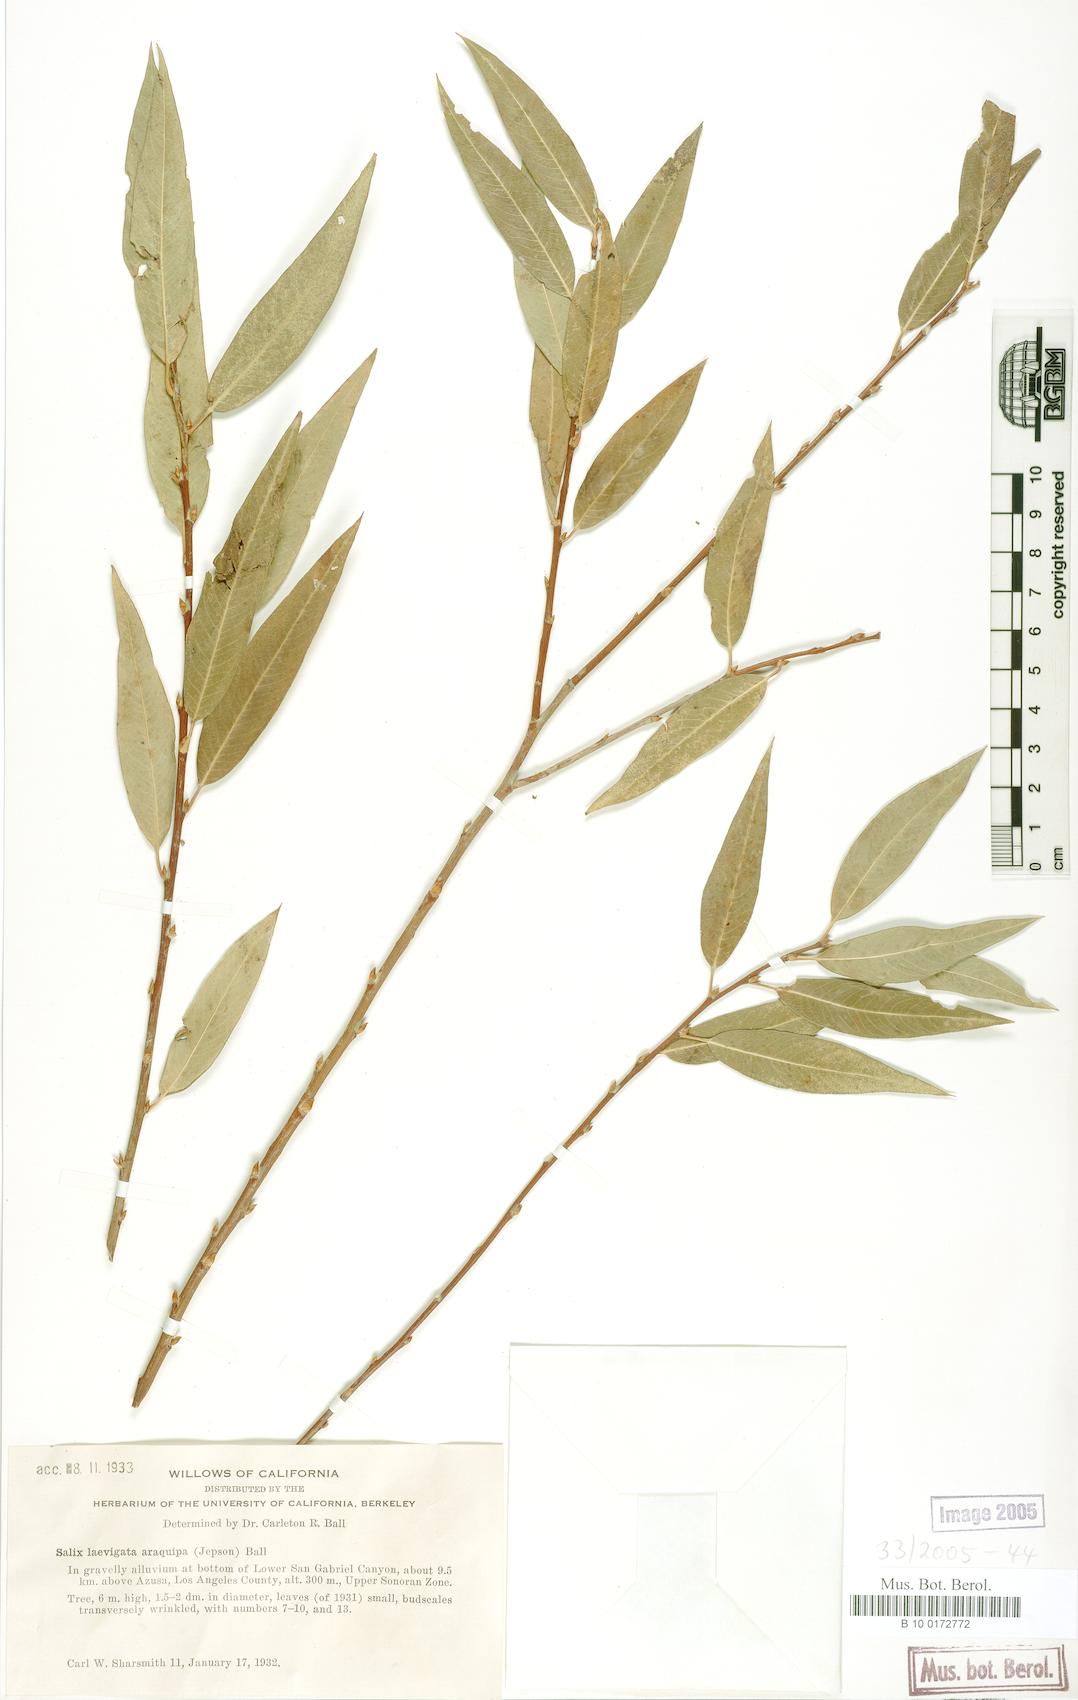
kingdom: Plantae
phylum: Tracheophyta
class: Magnoliopsida
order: Malpighiales
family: Salicaceae
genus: Salix
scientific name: Salix laevigata
